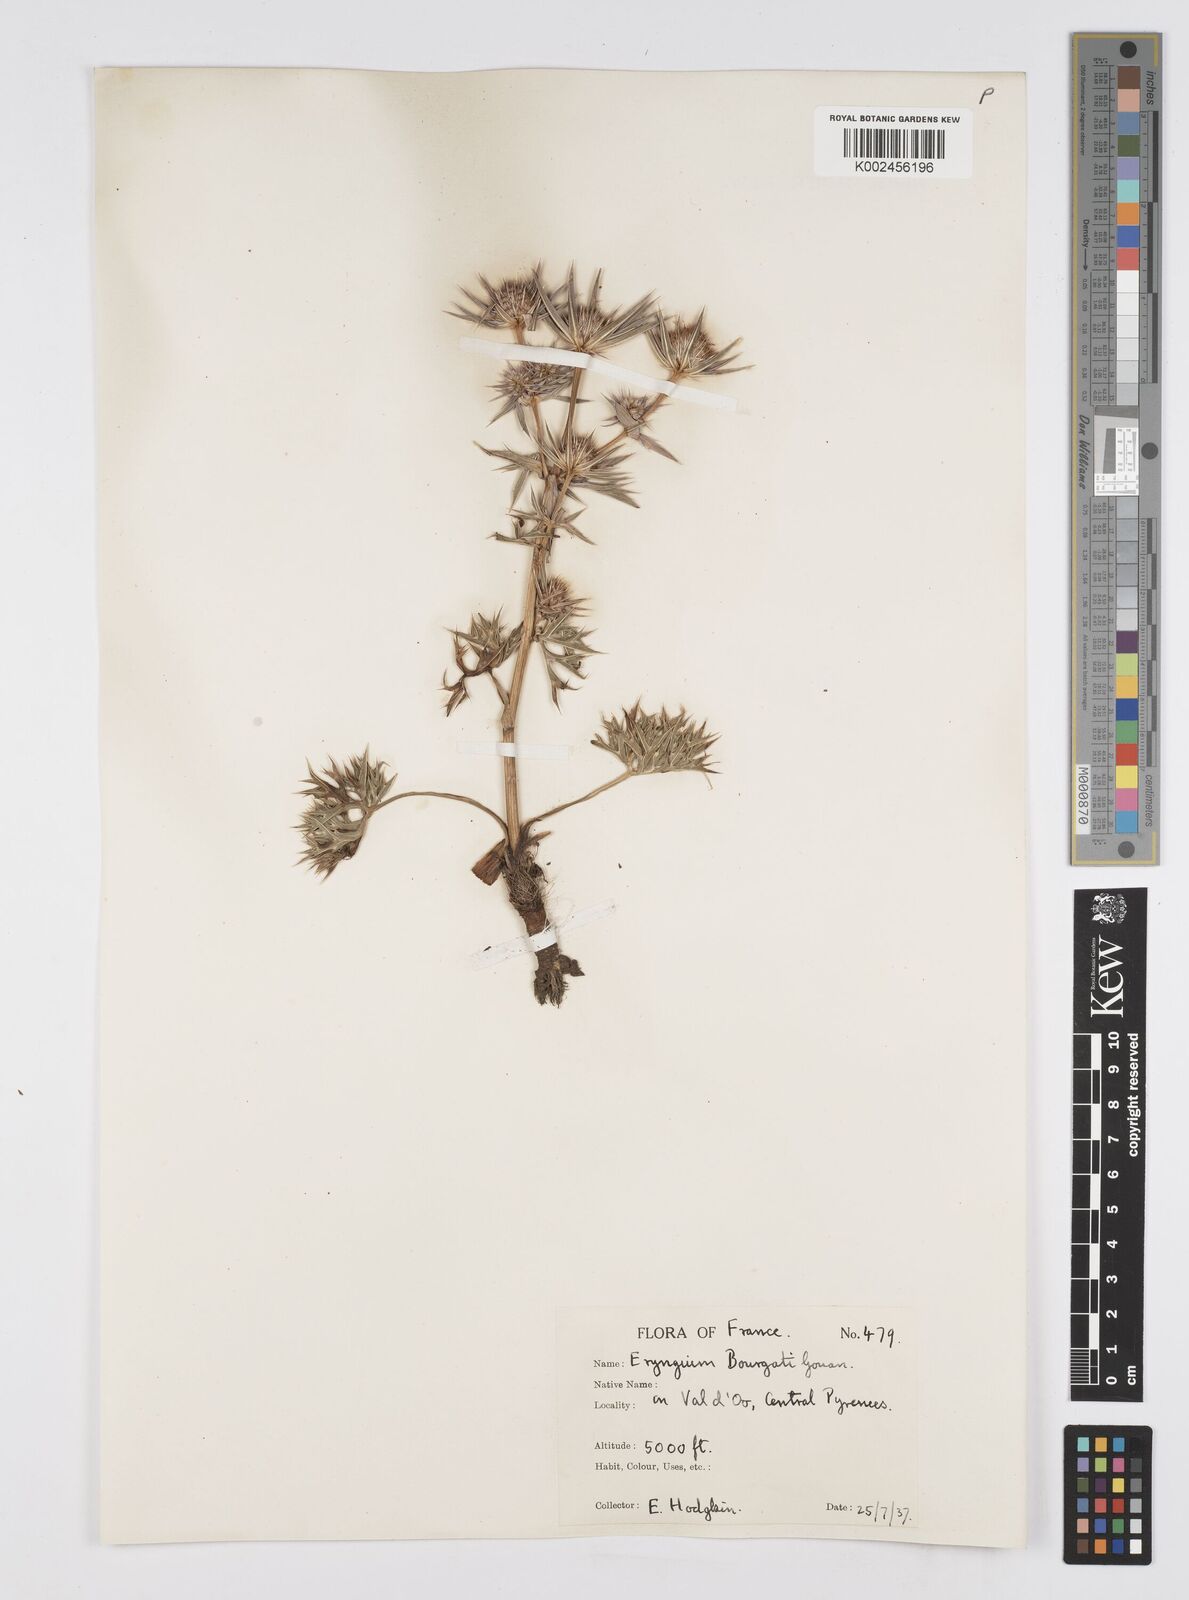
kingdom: Plantae
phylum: Tracheophyta
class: Magnoliopsida
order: Apiales
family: Apiaceae
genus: Eryngium
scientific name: Eryngium bourgatii
